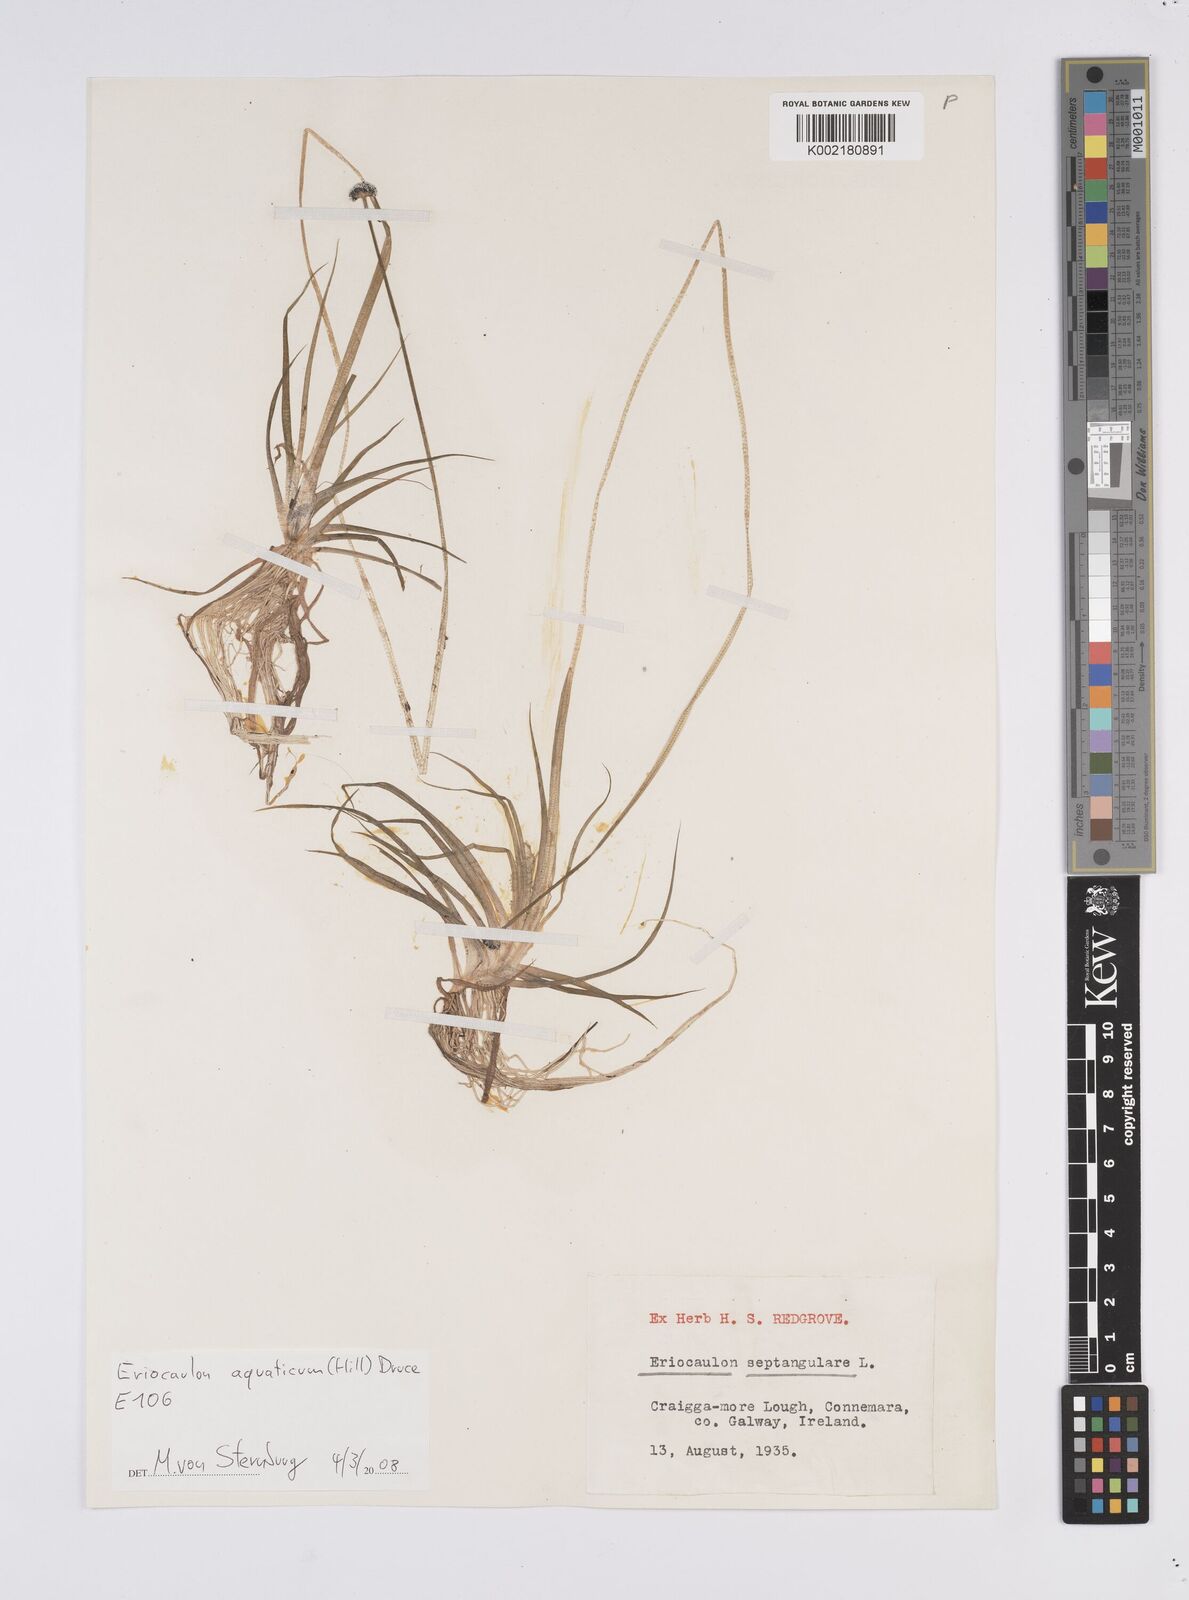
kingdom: Plantae
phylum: Tracheophyta
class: Liliopsida
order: Poales
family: Eriocaulaceae
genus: Eriocaulon
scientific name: Eriocaulon aquaticum
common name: Pipewort
